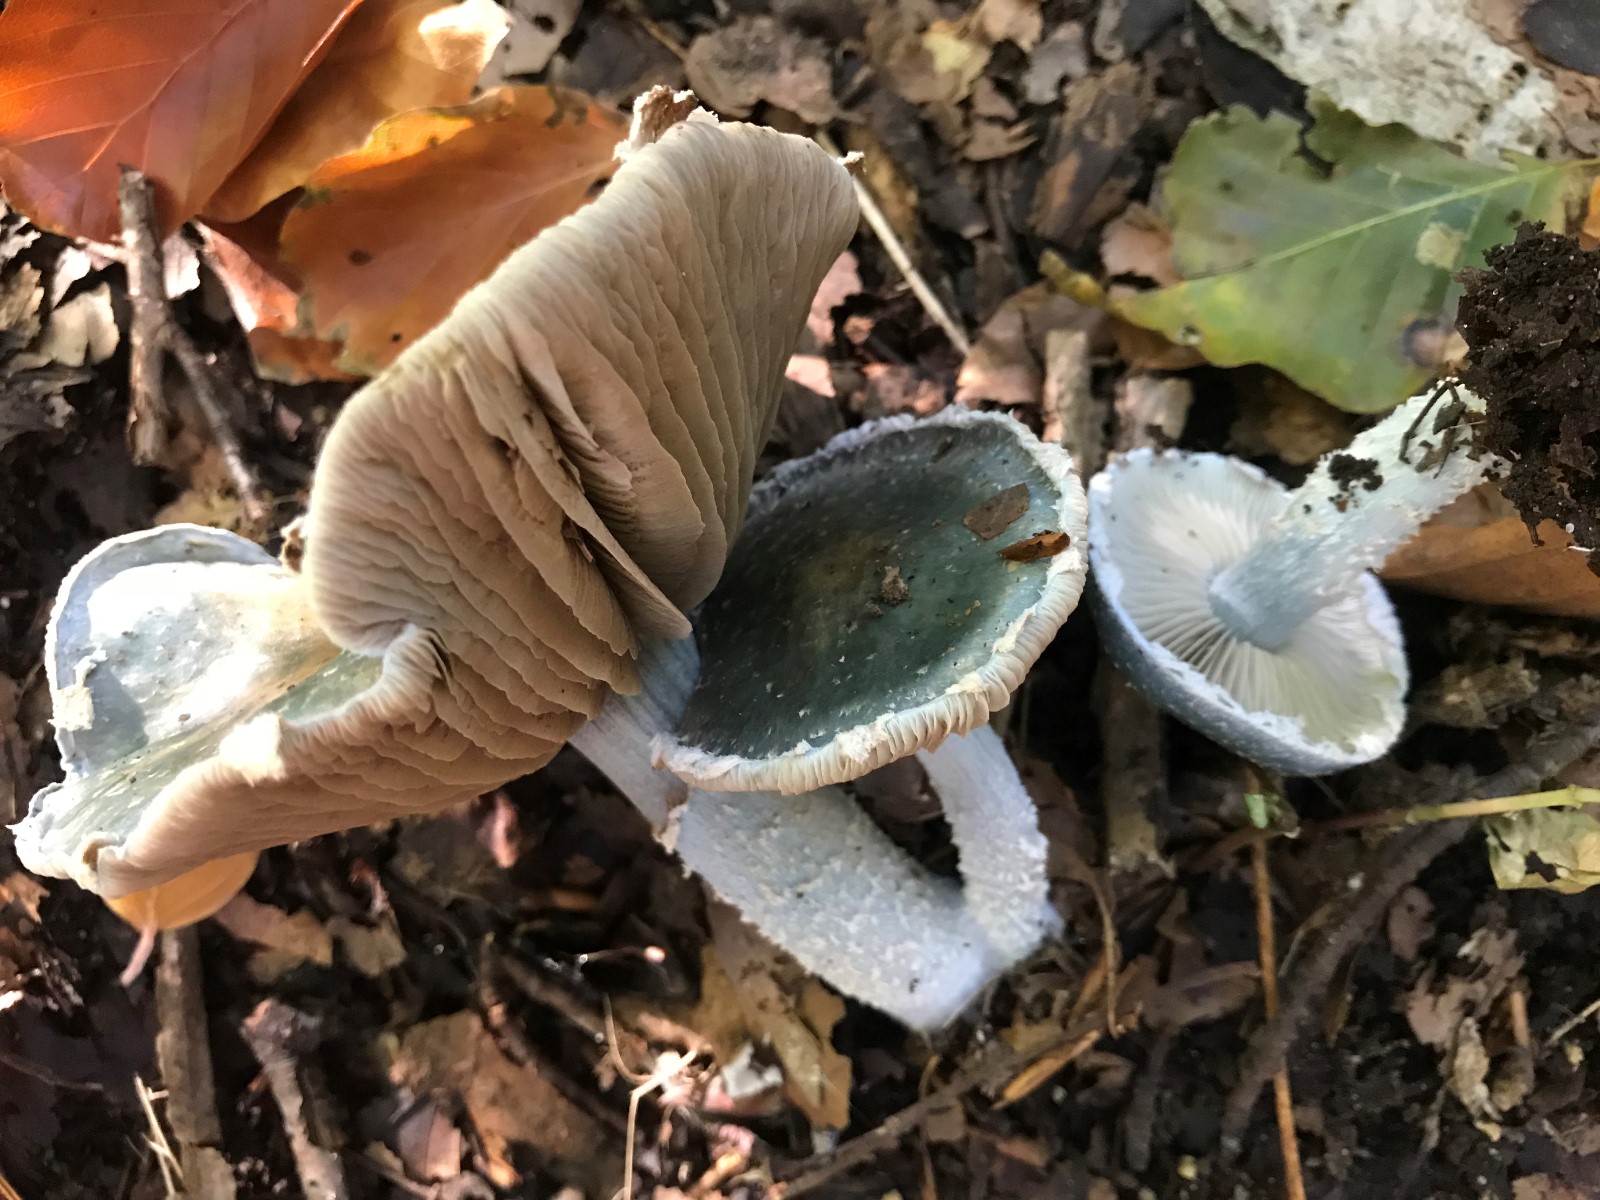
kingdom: Fungi
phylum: Basidiomycota
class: Agaricomycetes
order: Agaricales
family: Strophariaceae
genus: Stropharia
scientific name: Stropharia cyanea
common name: blågrøn bredblad
